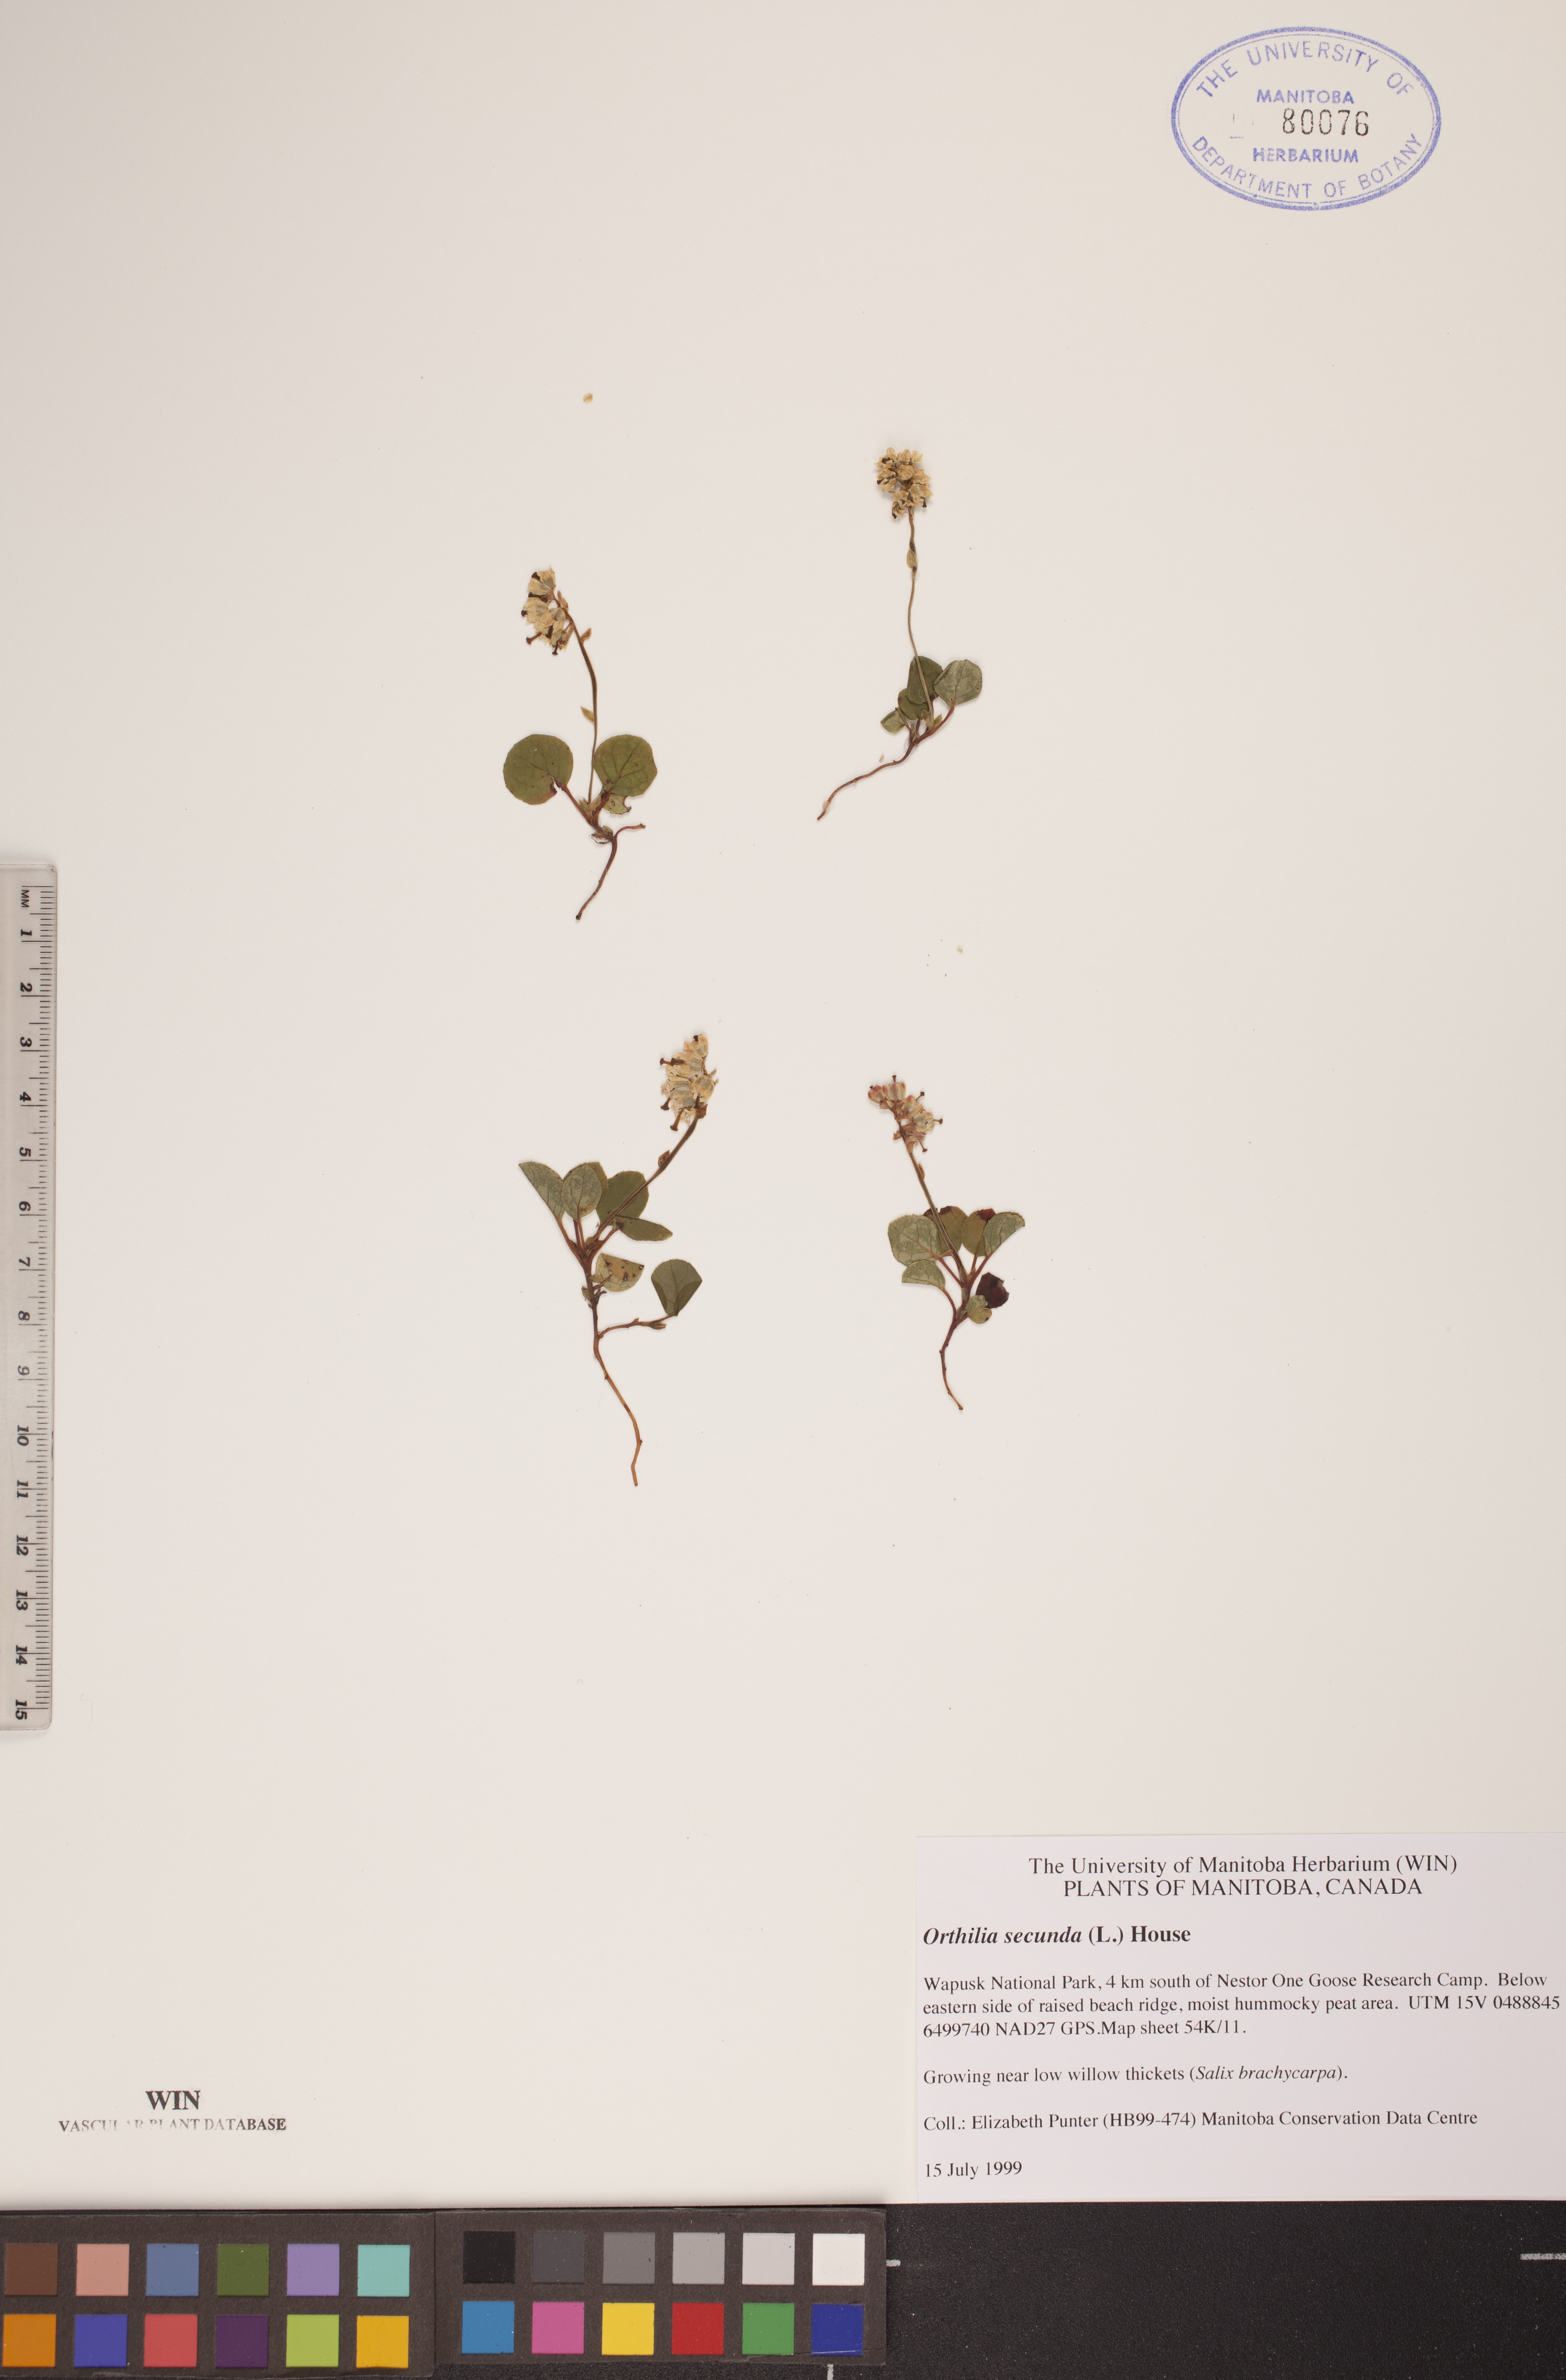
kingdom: Plantae
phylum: Tracheophyta
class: Magnoliopsida
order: Ericales
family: Ericaceae
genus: Orthilia
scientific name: Orthilia secunda
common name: One-sided orthilia
